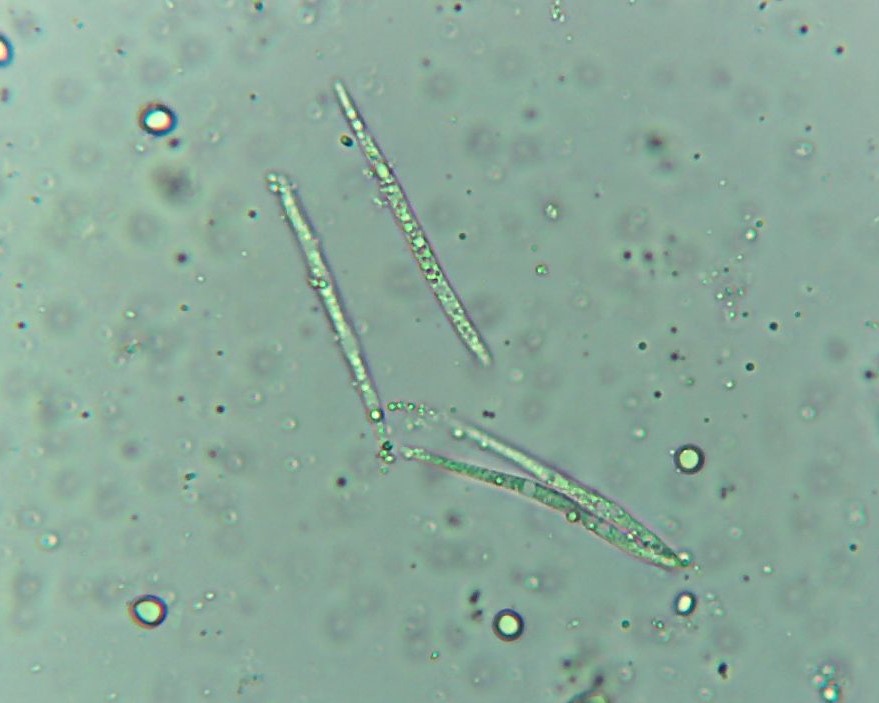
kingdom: Fungi
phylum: Basidiomycota
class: Exobasidiomycetes
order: Entylomatales
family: Entylomataceae
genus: Entyloma
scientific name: Entyloma ficariae
